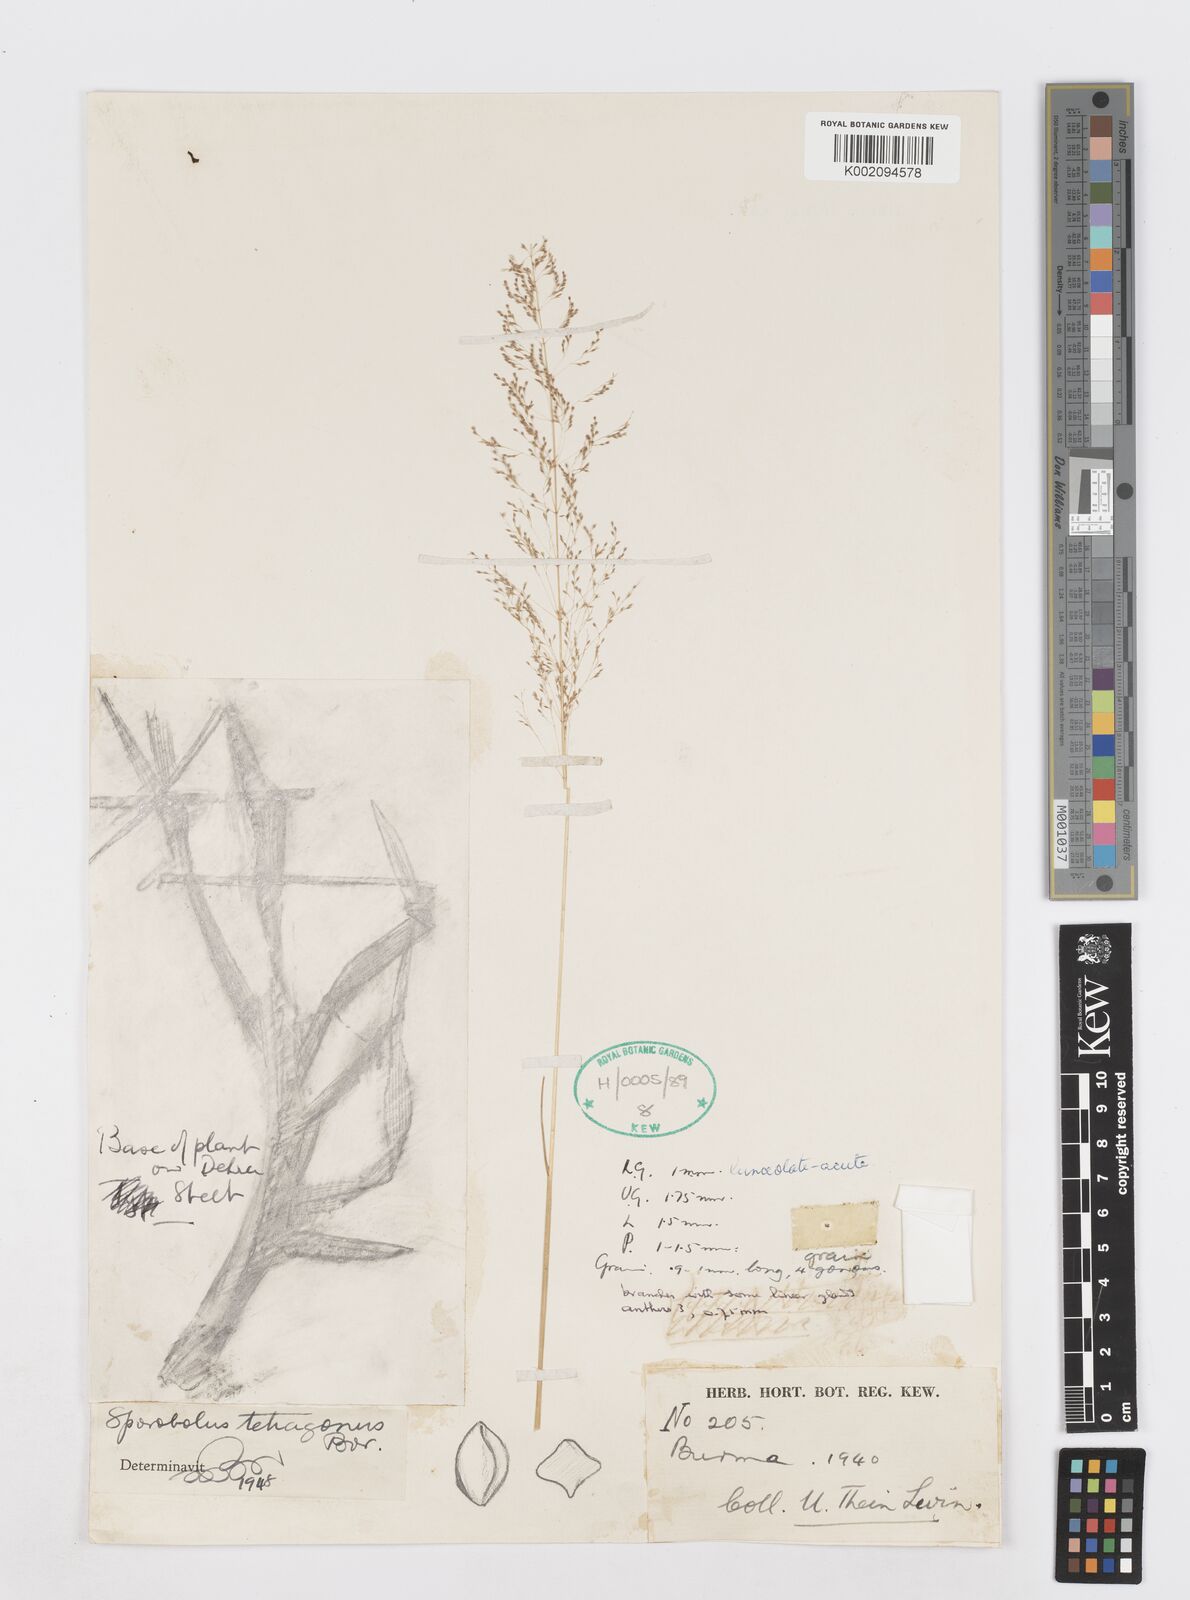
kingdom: Plantae
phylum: Tracheophyta
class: Liliopsida
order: Poales
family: Poaceae
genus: Sporobolus
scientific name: Sporobolus tetragonus
